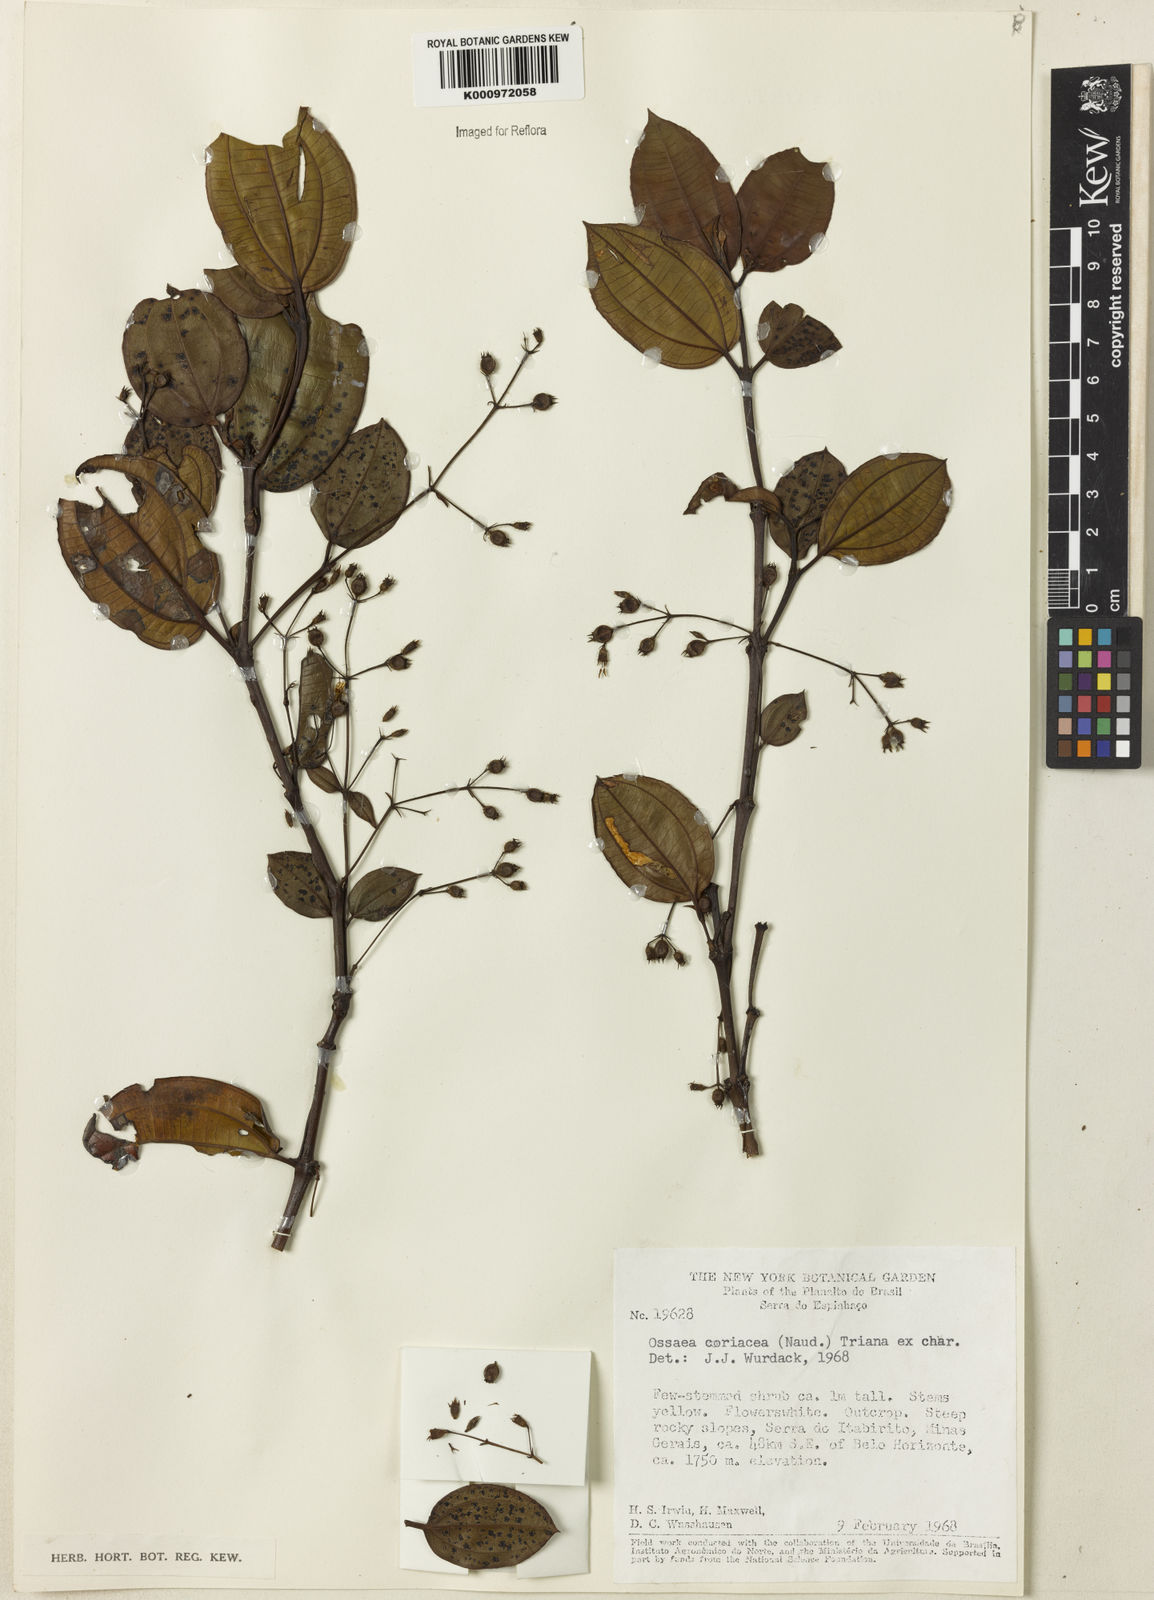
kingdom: Plantae
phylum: Tracheophyta
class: Magnoliopsida
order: Myrtales
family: Melastomataceae
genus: Miconia
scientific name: Miconia leacongestiflora
